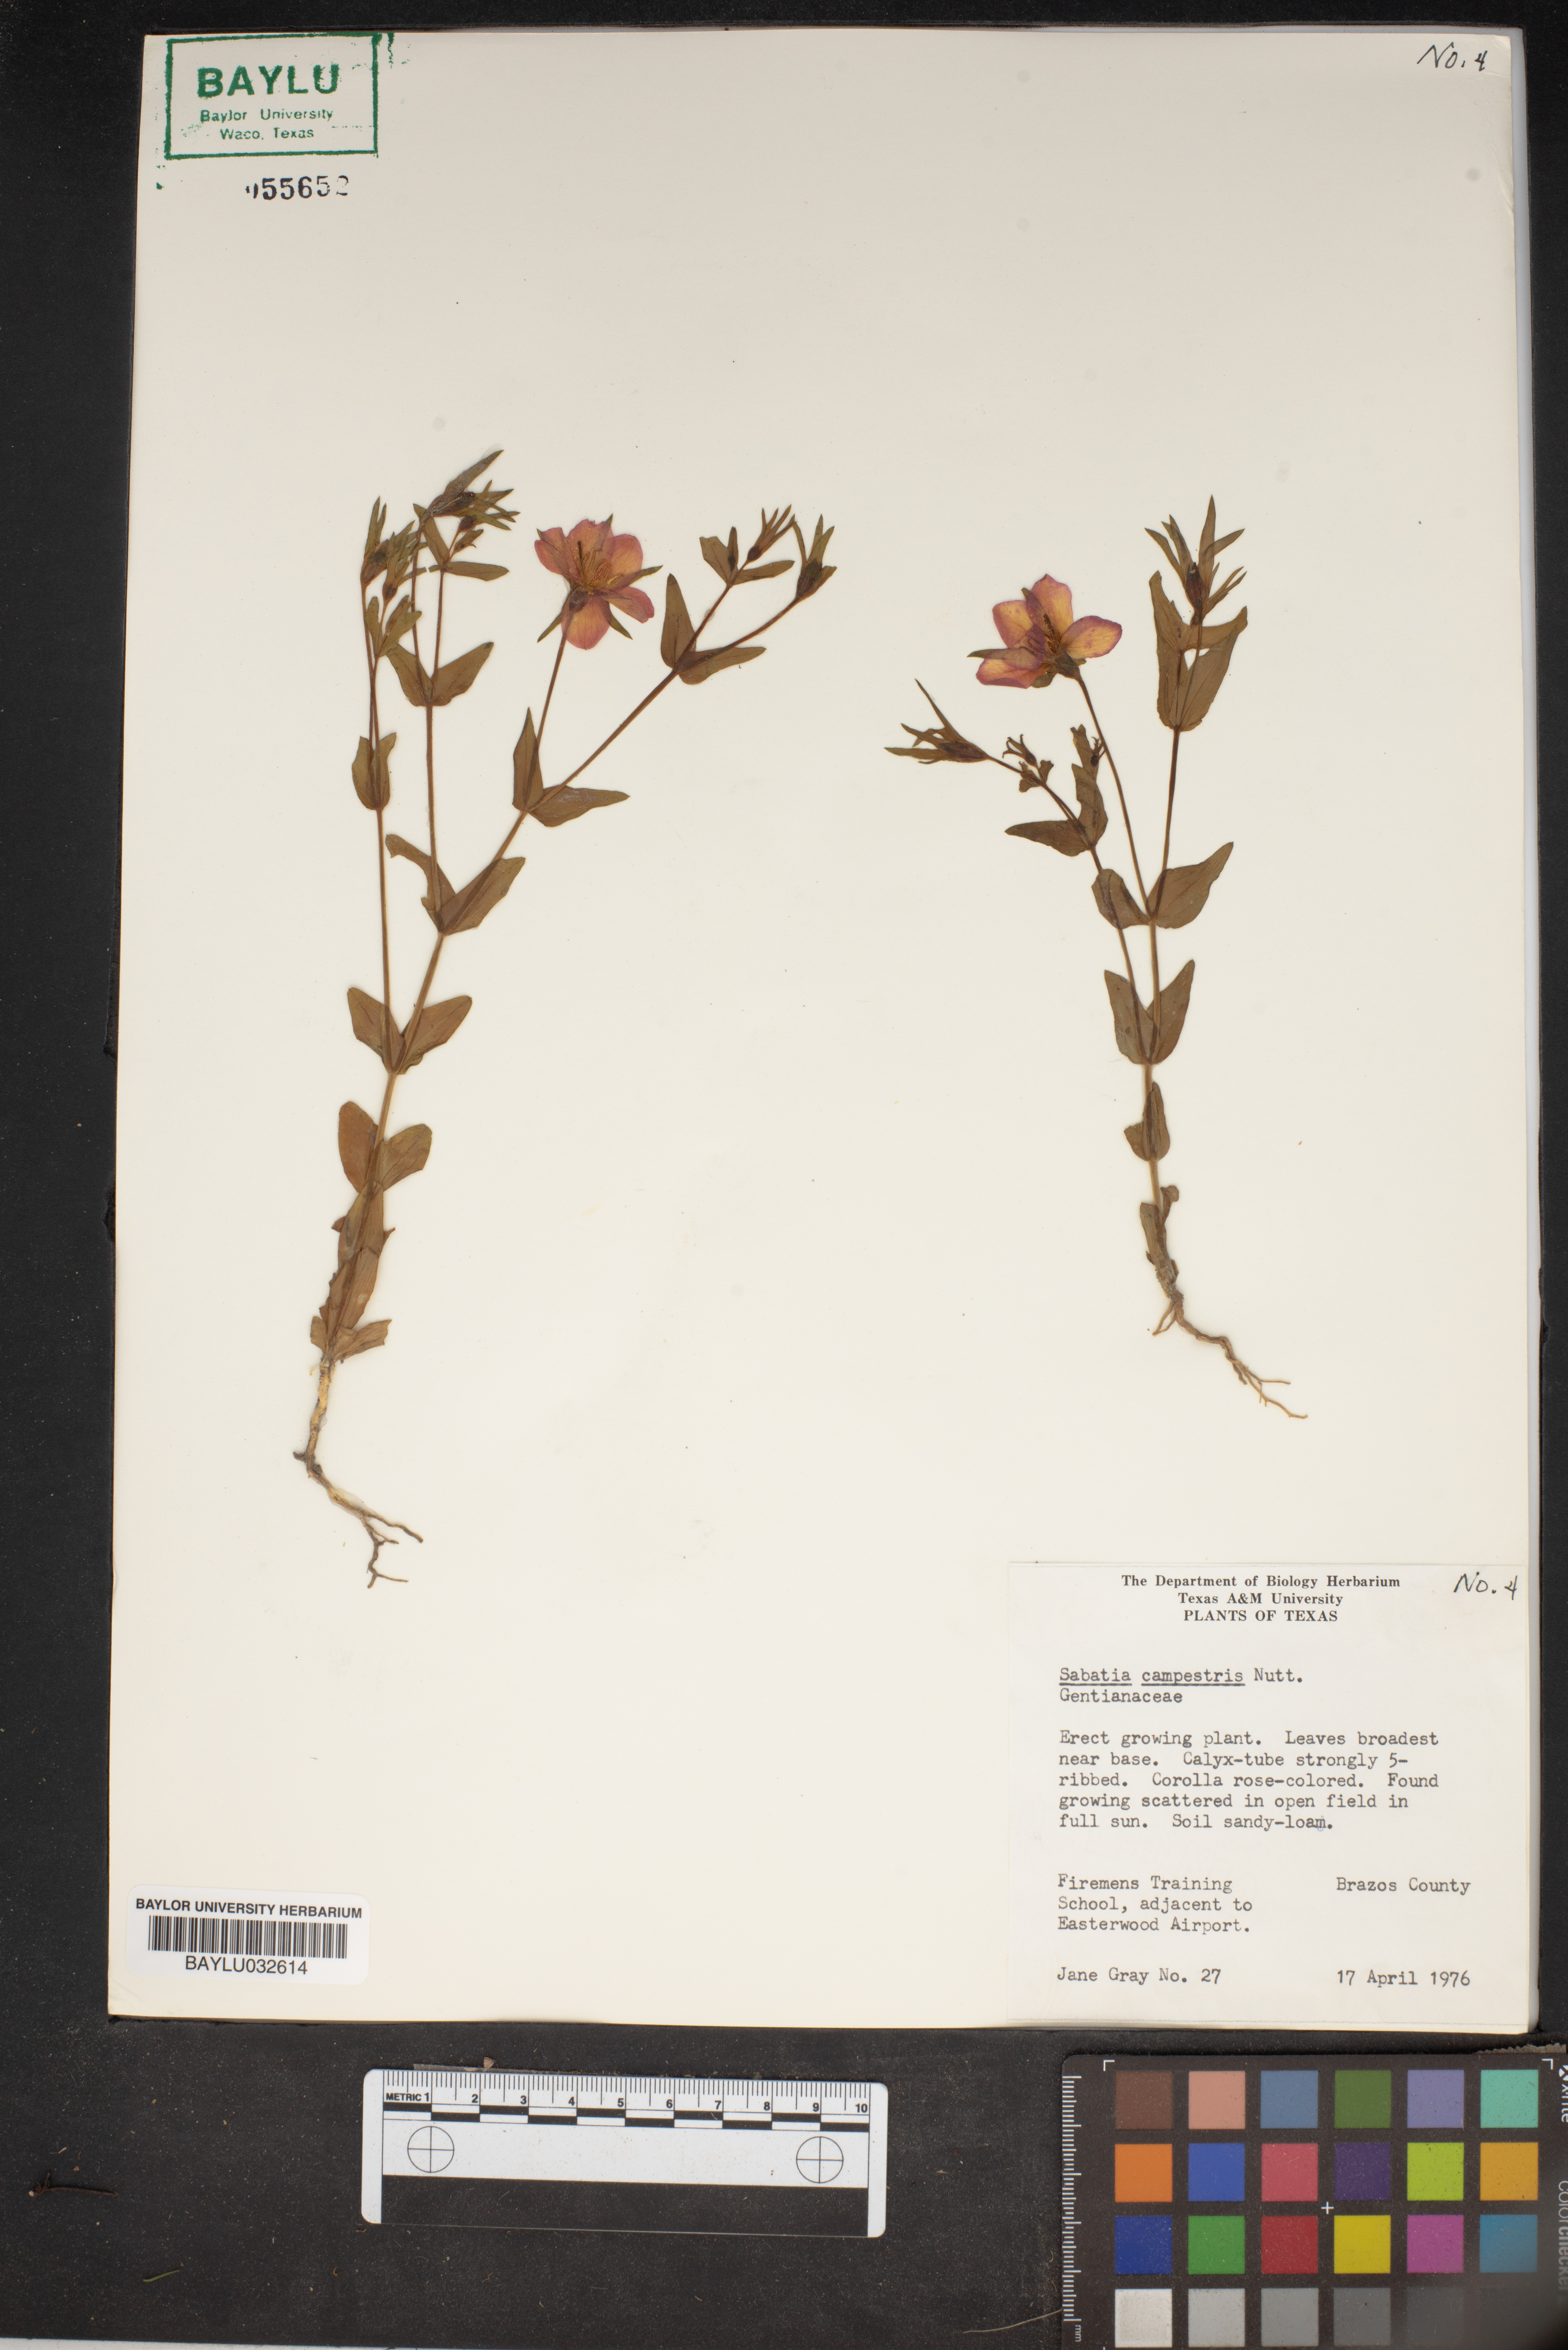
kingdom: Plantae
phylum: Tracheophyta
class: Magnoliopsida
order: Gentianales
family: Gentianaceae
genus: Sabatia
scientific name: Sabatia campestris
